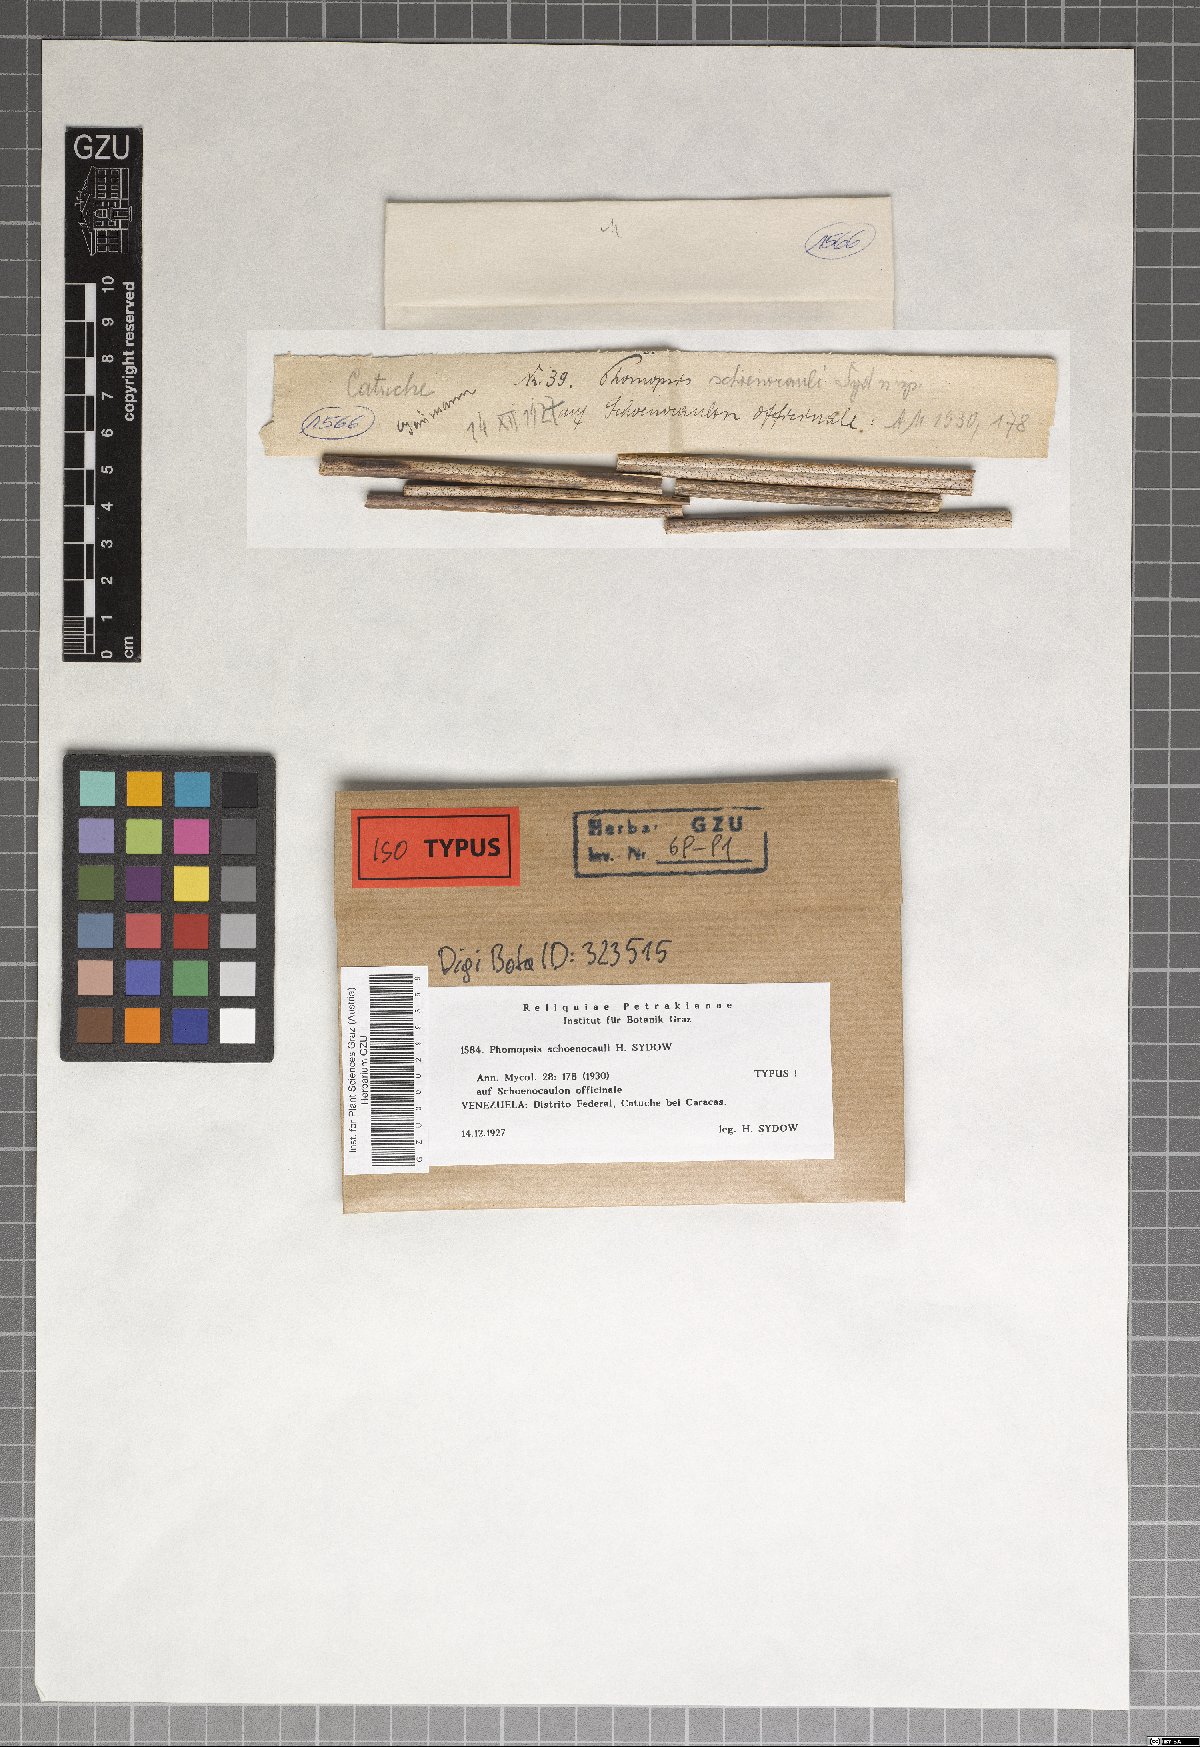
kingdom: Fungi
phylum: Ascomycota
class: Sordariomycetes
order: Diaporthales
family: Diaporthaceae
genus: Phomopsis
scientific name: Phomopsis schoenocauli
